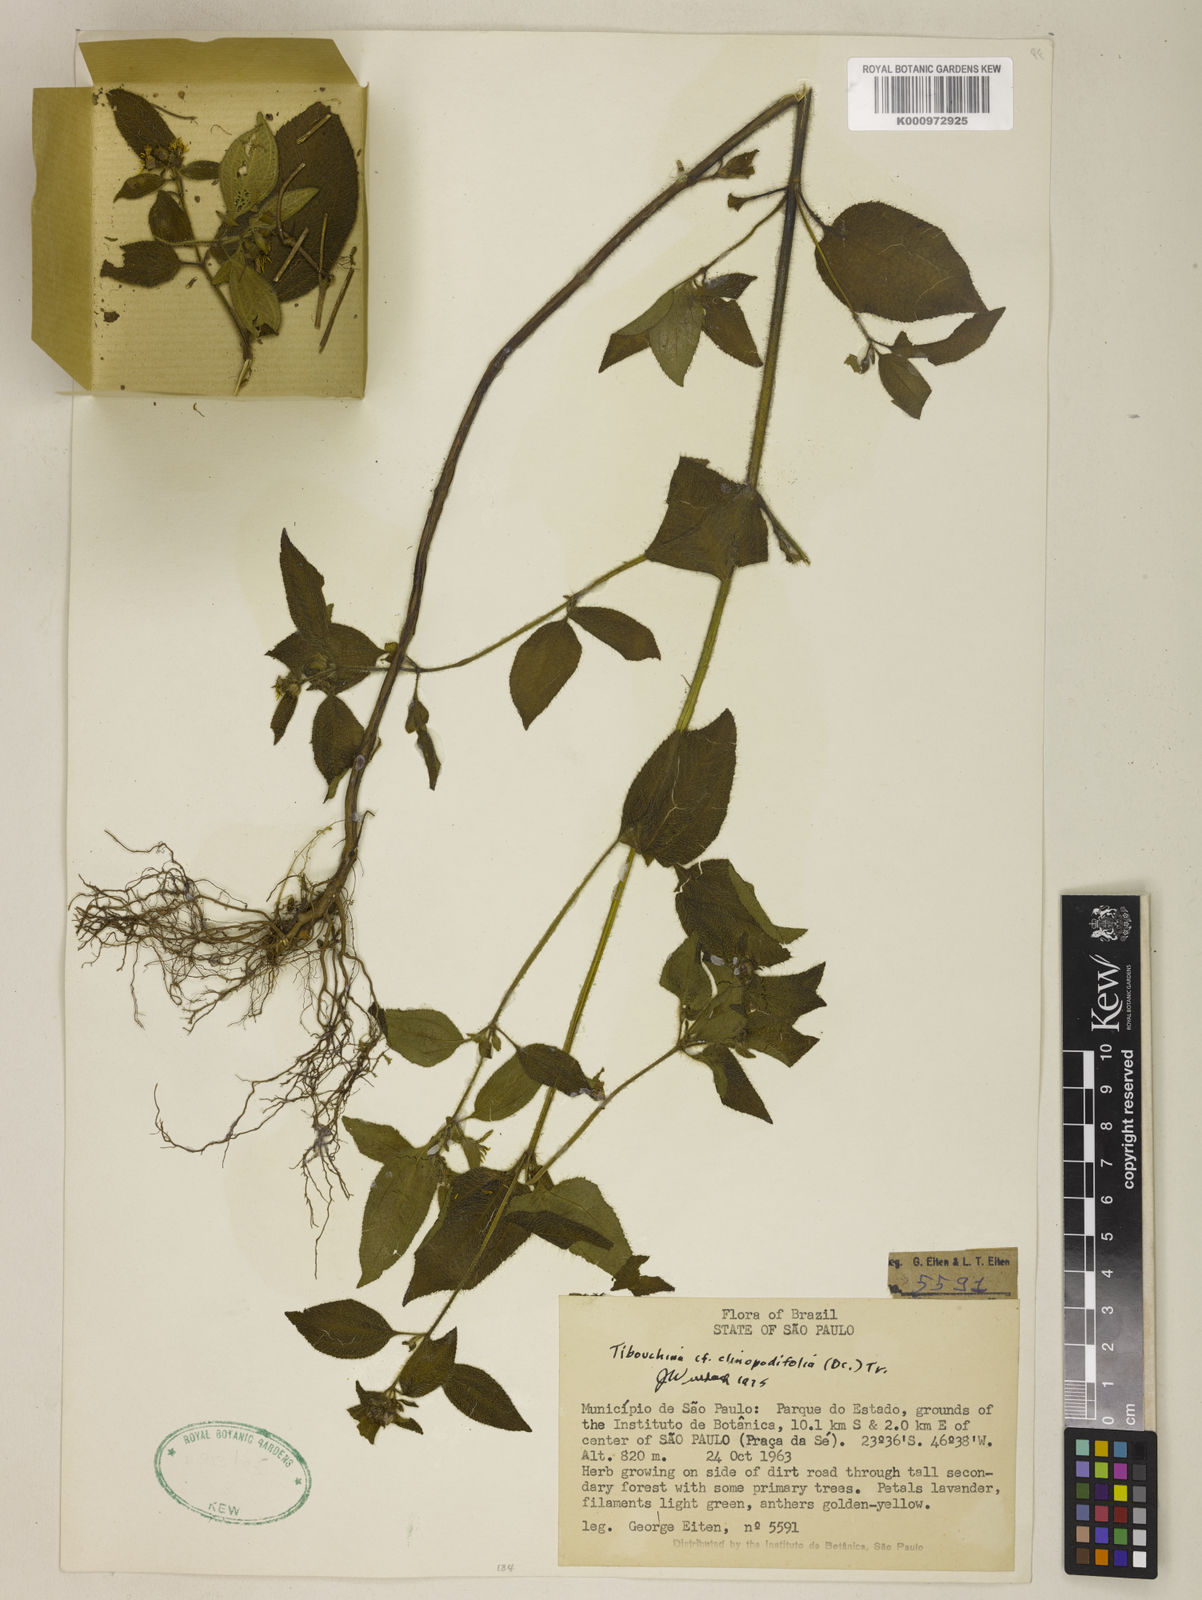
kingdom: Plantae
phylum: Tracheophyta
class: Magnoliopsida
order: Myrtales
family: Melastomataceae
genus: Chaetogastra
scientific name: Chaetogastra clinopodifolia
